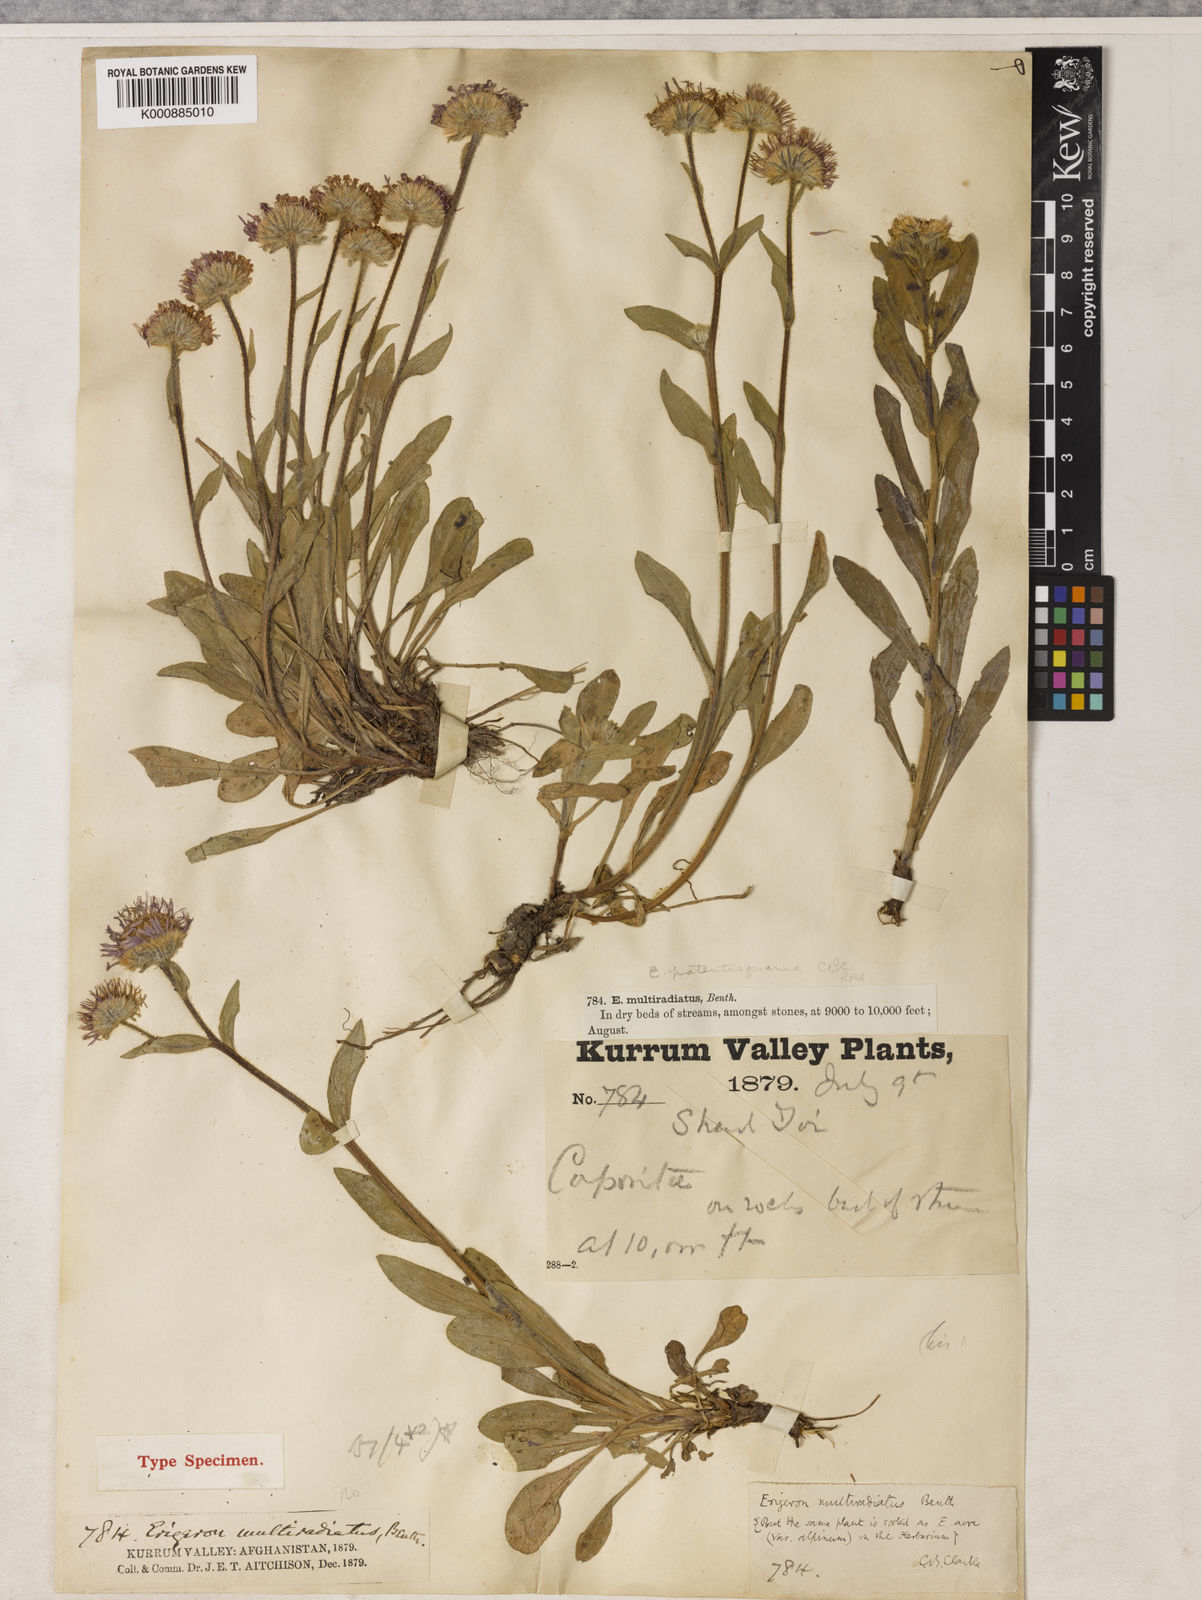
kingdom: Plantae
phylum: Tracheophyta
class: Magnoliopsida
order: Asterales
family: Asteraceae
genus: Erigeron
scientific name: Erigeron
